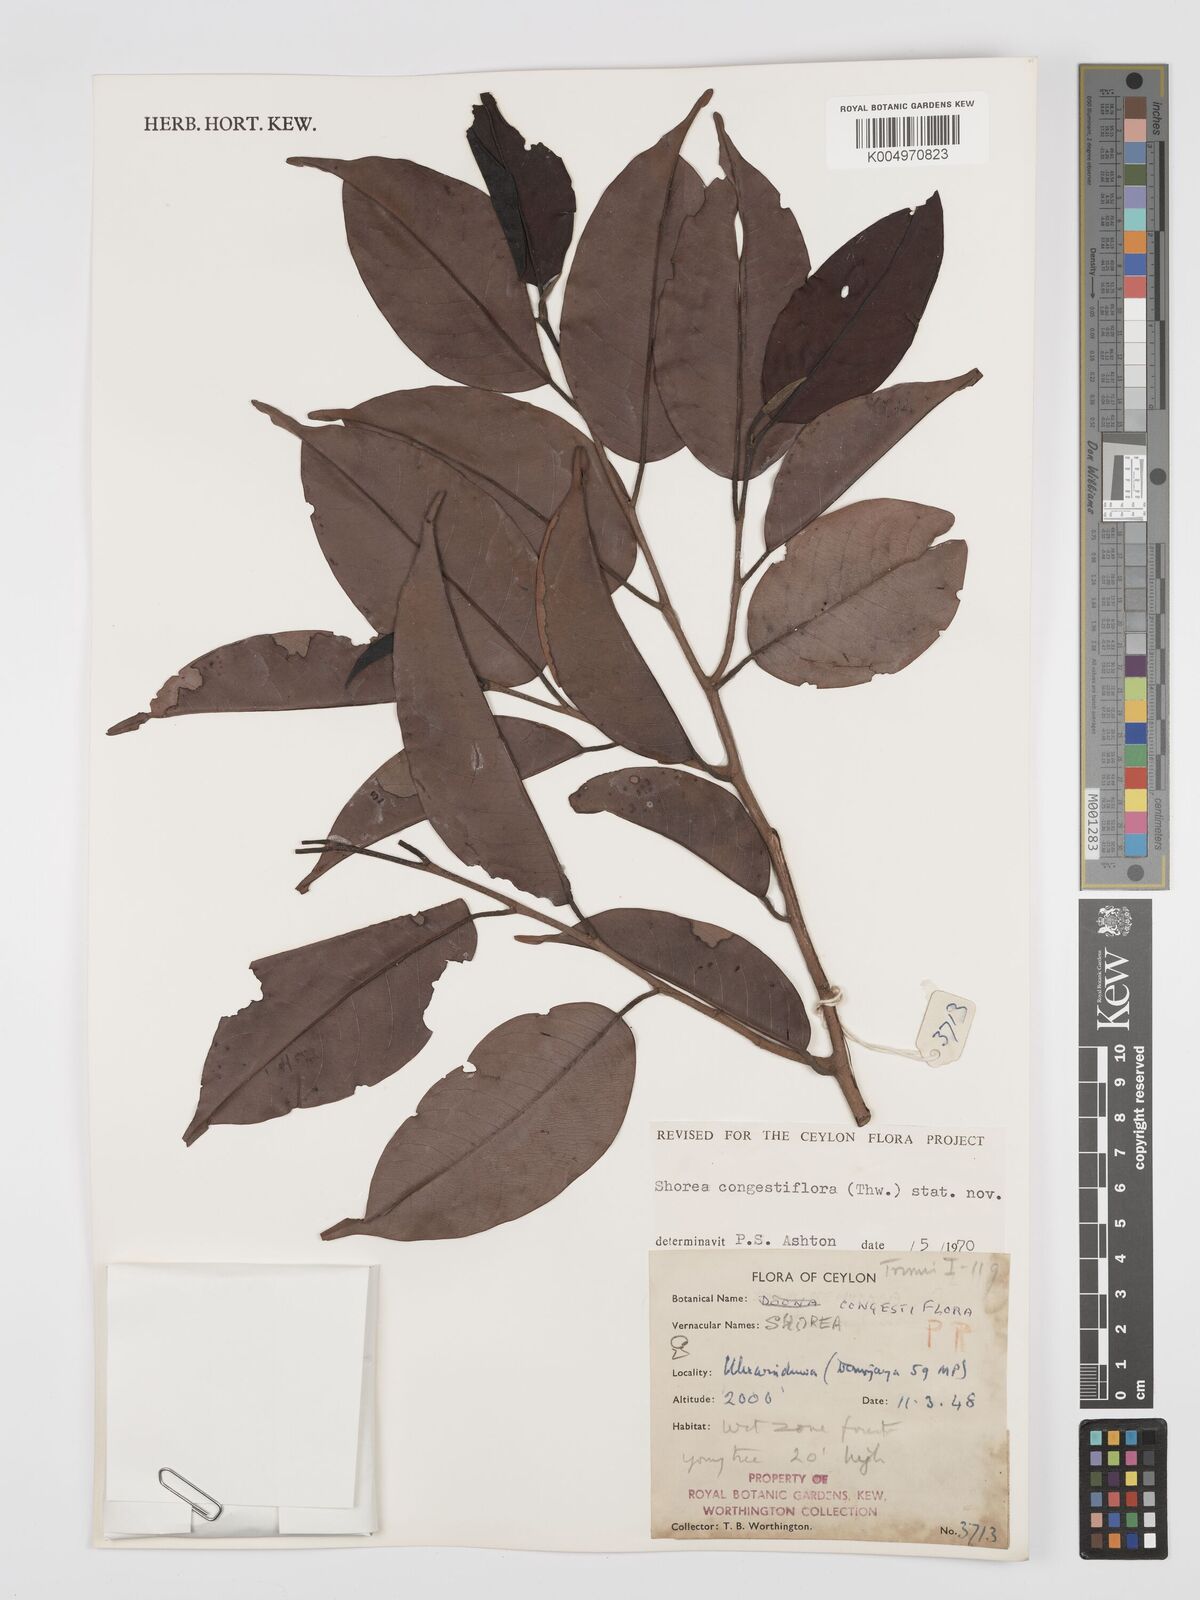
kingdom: Plantae
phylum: Tracheophyta
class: Magnoliopsida
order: Malvales
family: Dipterocarpaceae
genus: Doona
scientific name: Doona congestiflora
